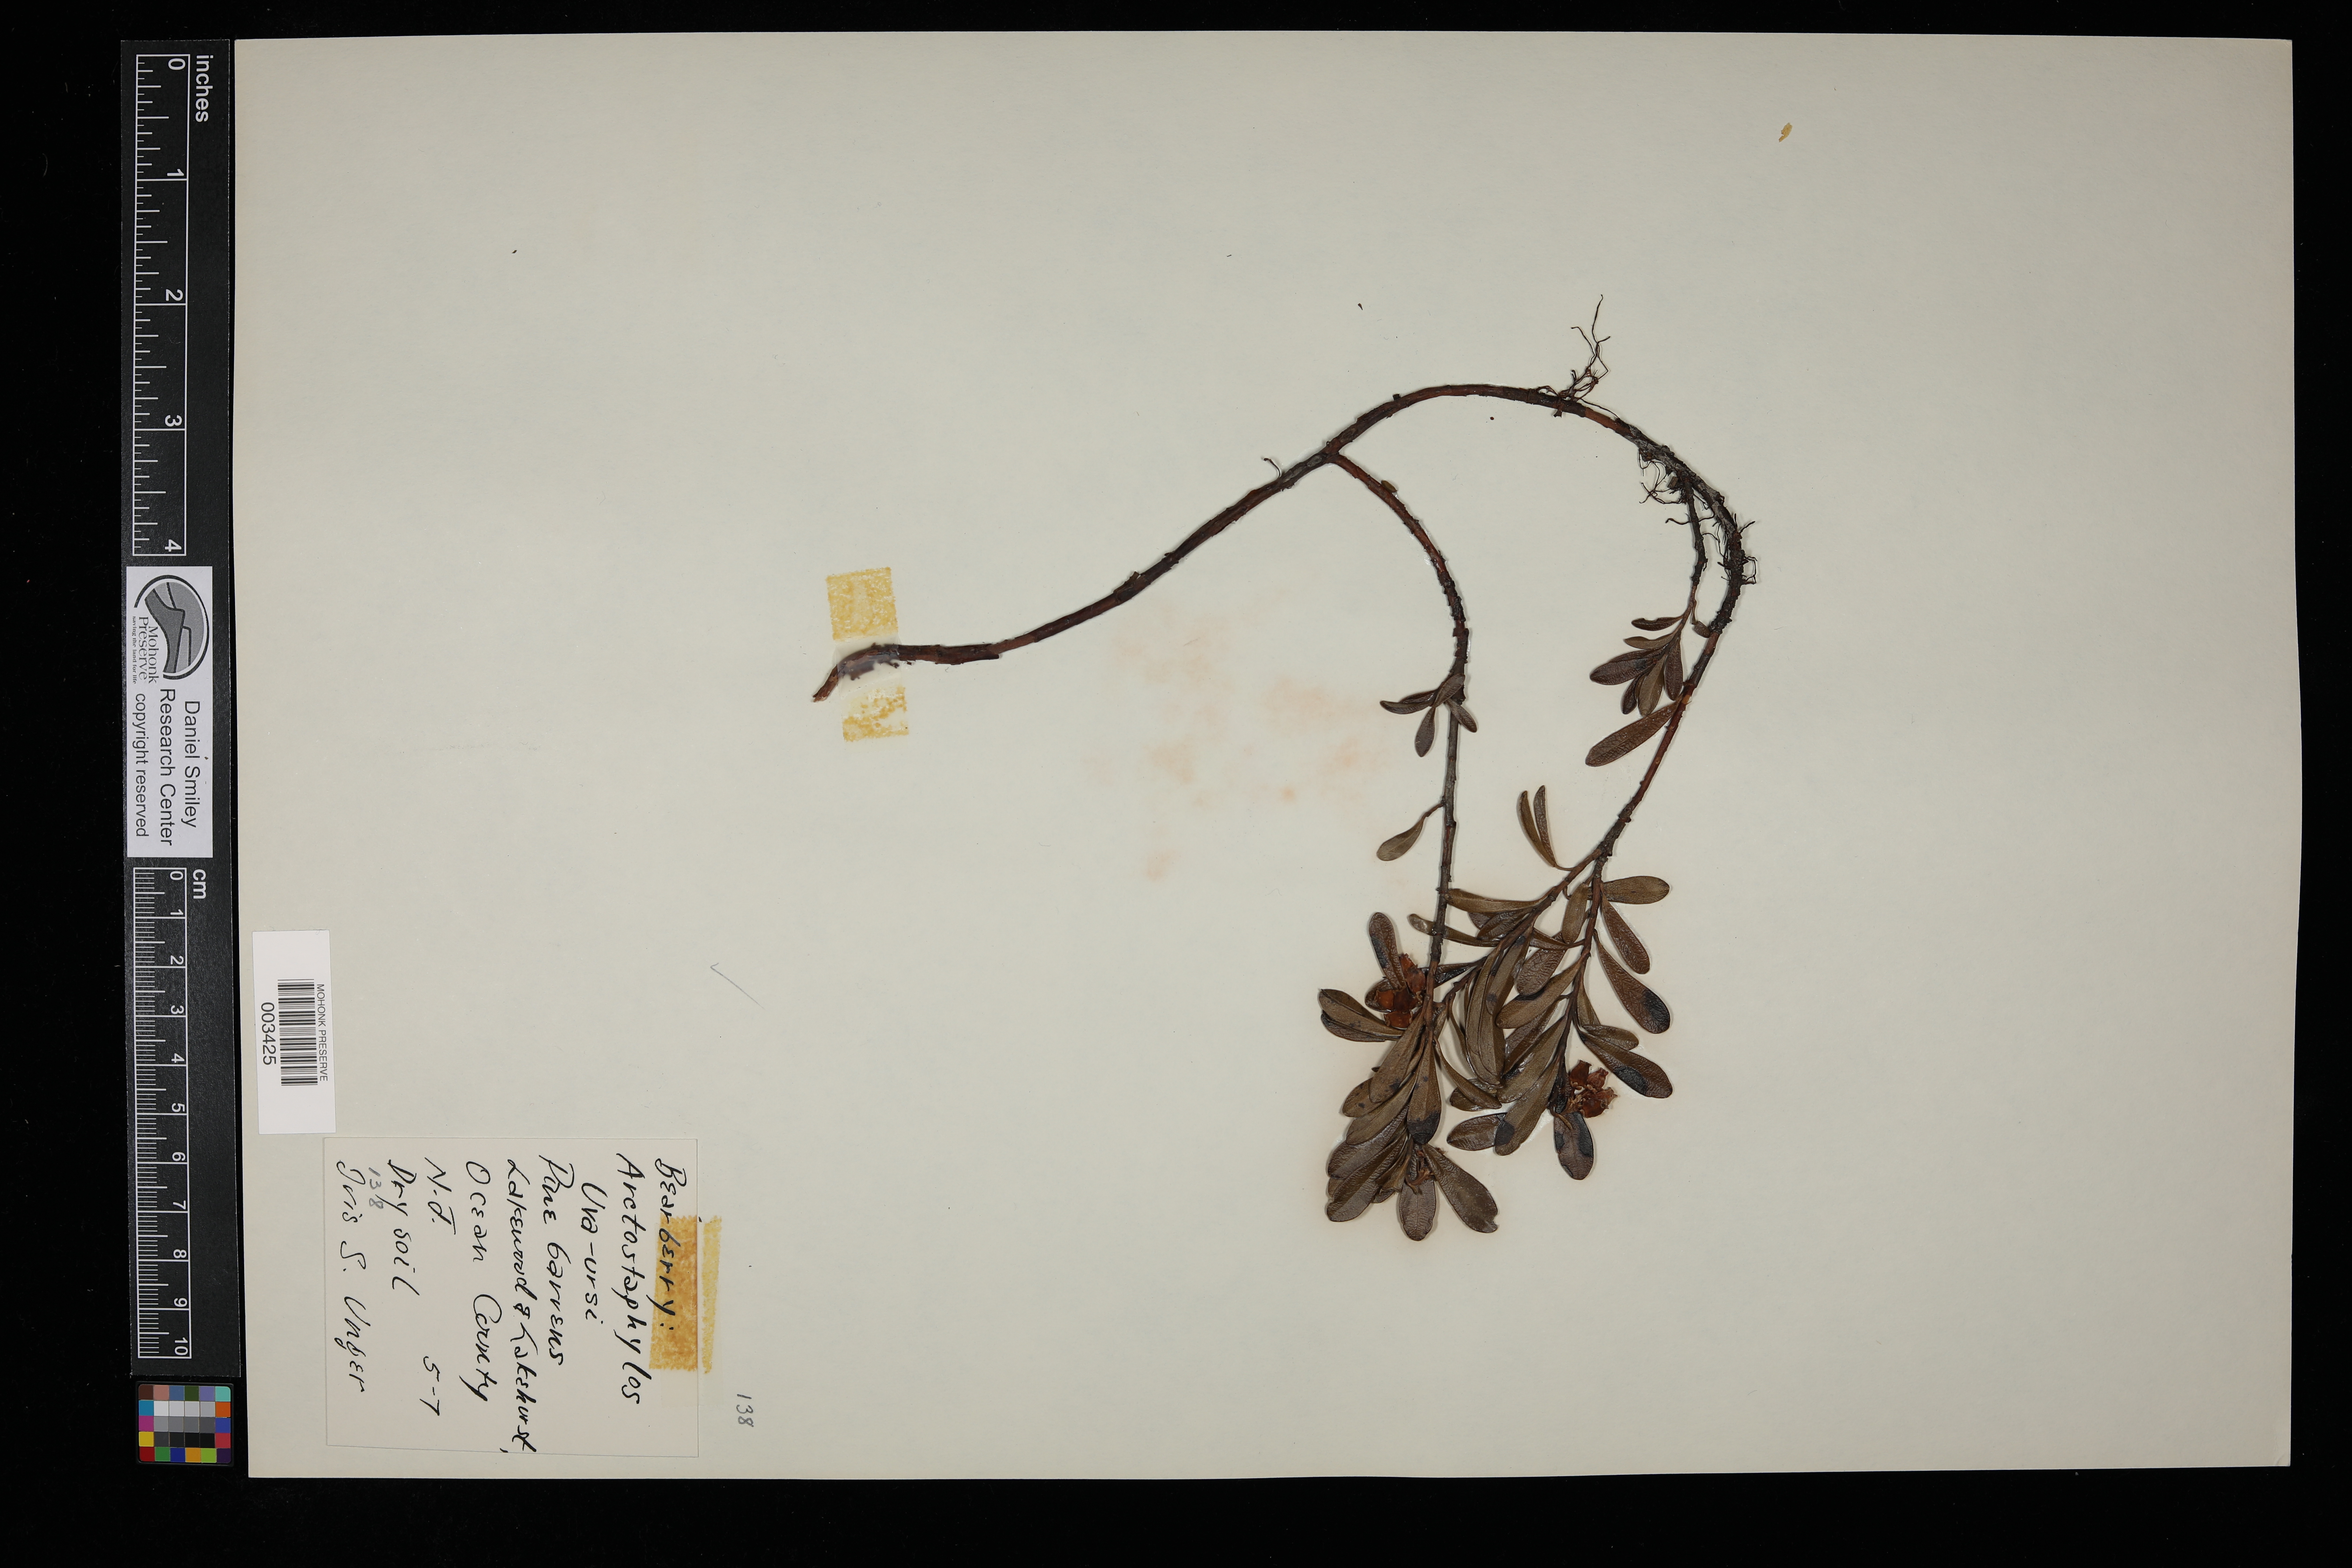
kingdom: Plantae
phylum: Tracheophyta
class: Magnoliopsida
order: Ericales
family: Ericaceae
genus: Arctostaphylos
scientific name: Arctostaphylos uva-ursi
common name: Bearberry
